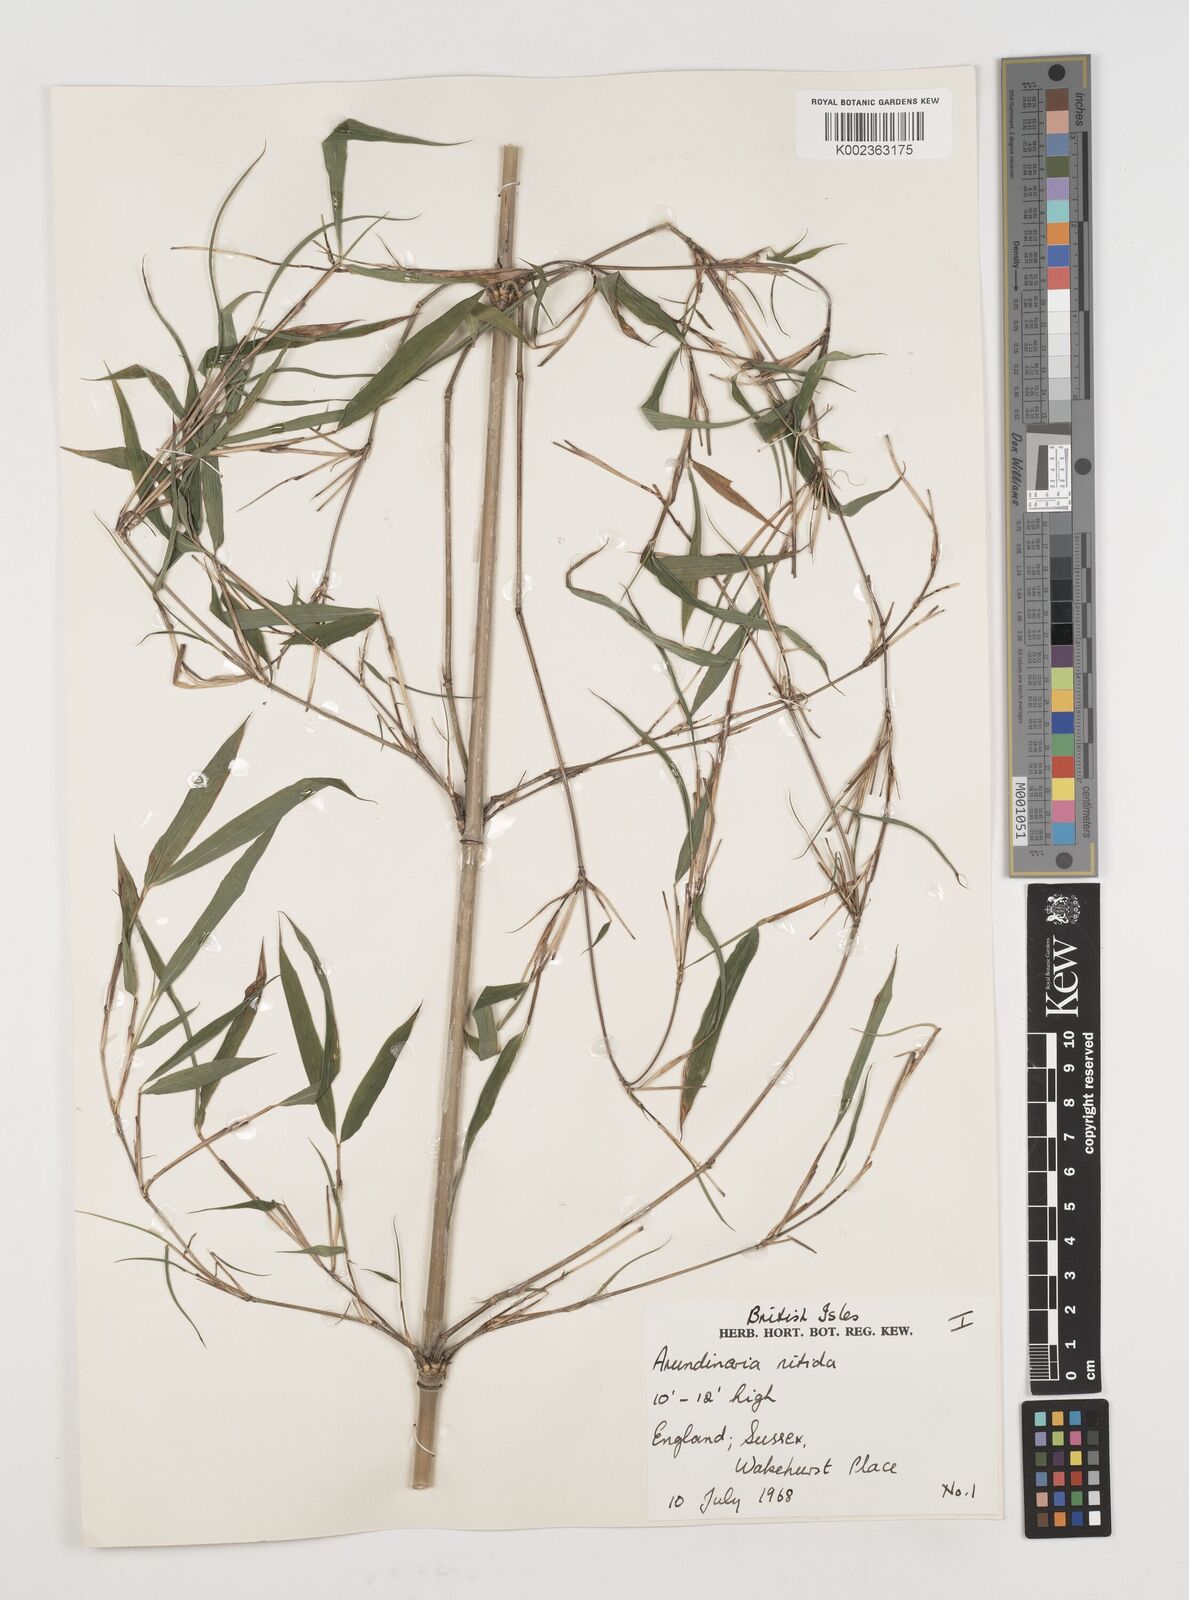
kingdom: Plantae
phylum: Tracheophyta
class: Liliopsida
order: Poales
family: Poaceae
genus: Fargesia
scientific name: Fargesia nitida ex
